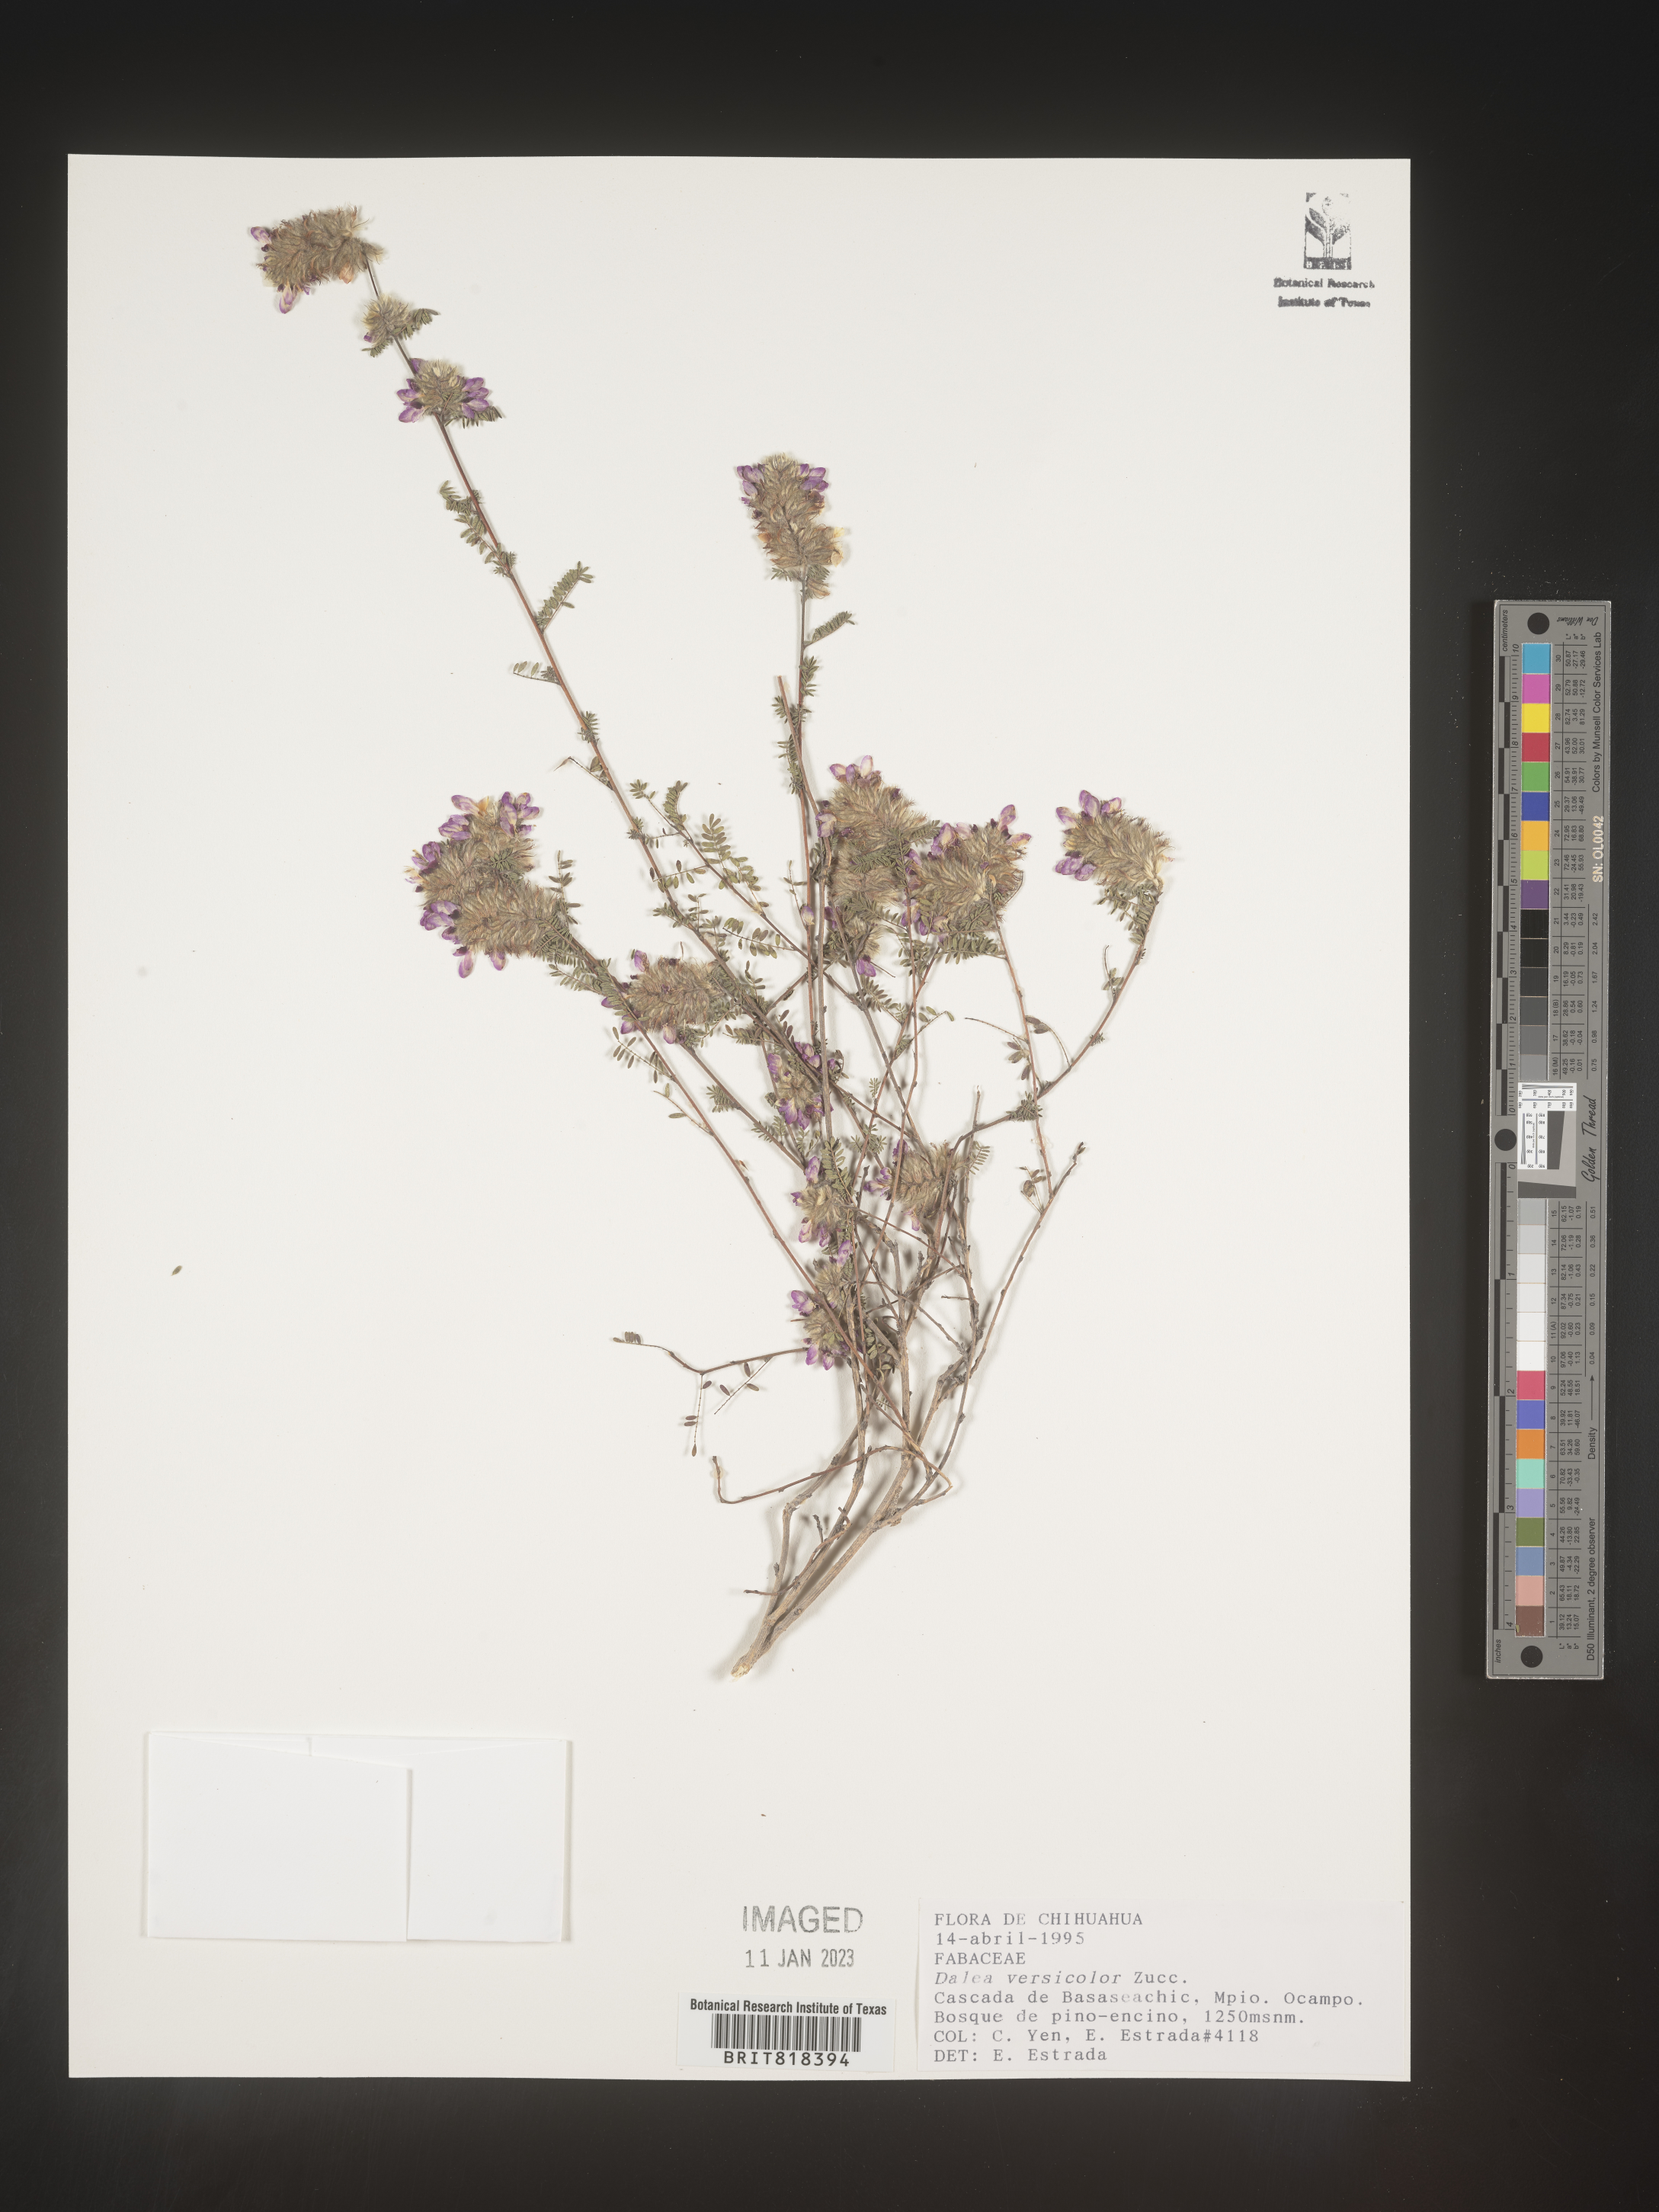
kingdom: Plantae
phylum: Tracheophyta
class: Magnoliopsida
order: Fabales
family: Fabaceae
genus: Dalea
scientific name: Dalea
